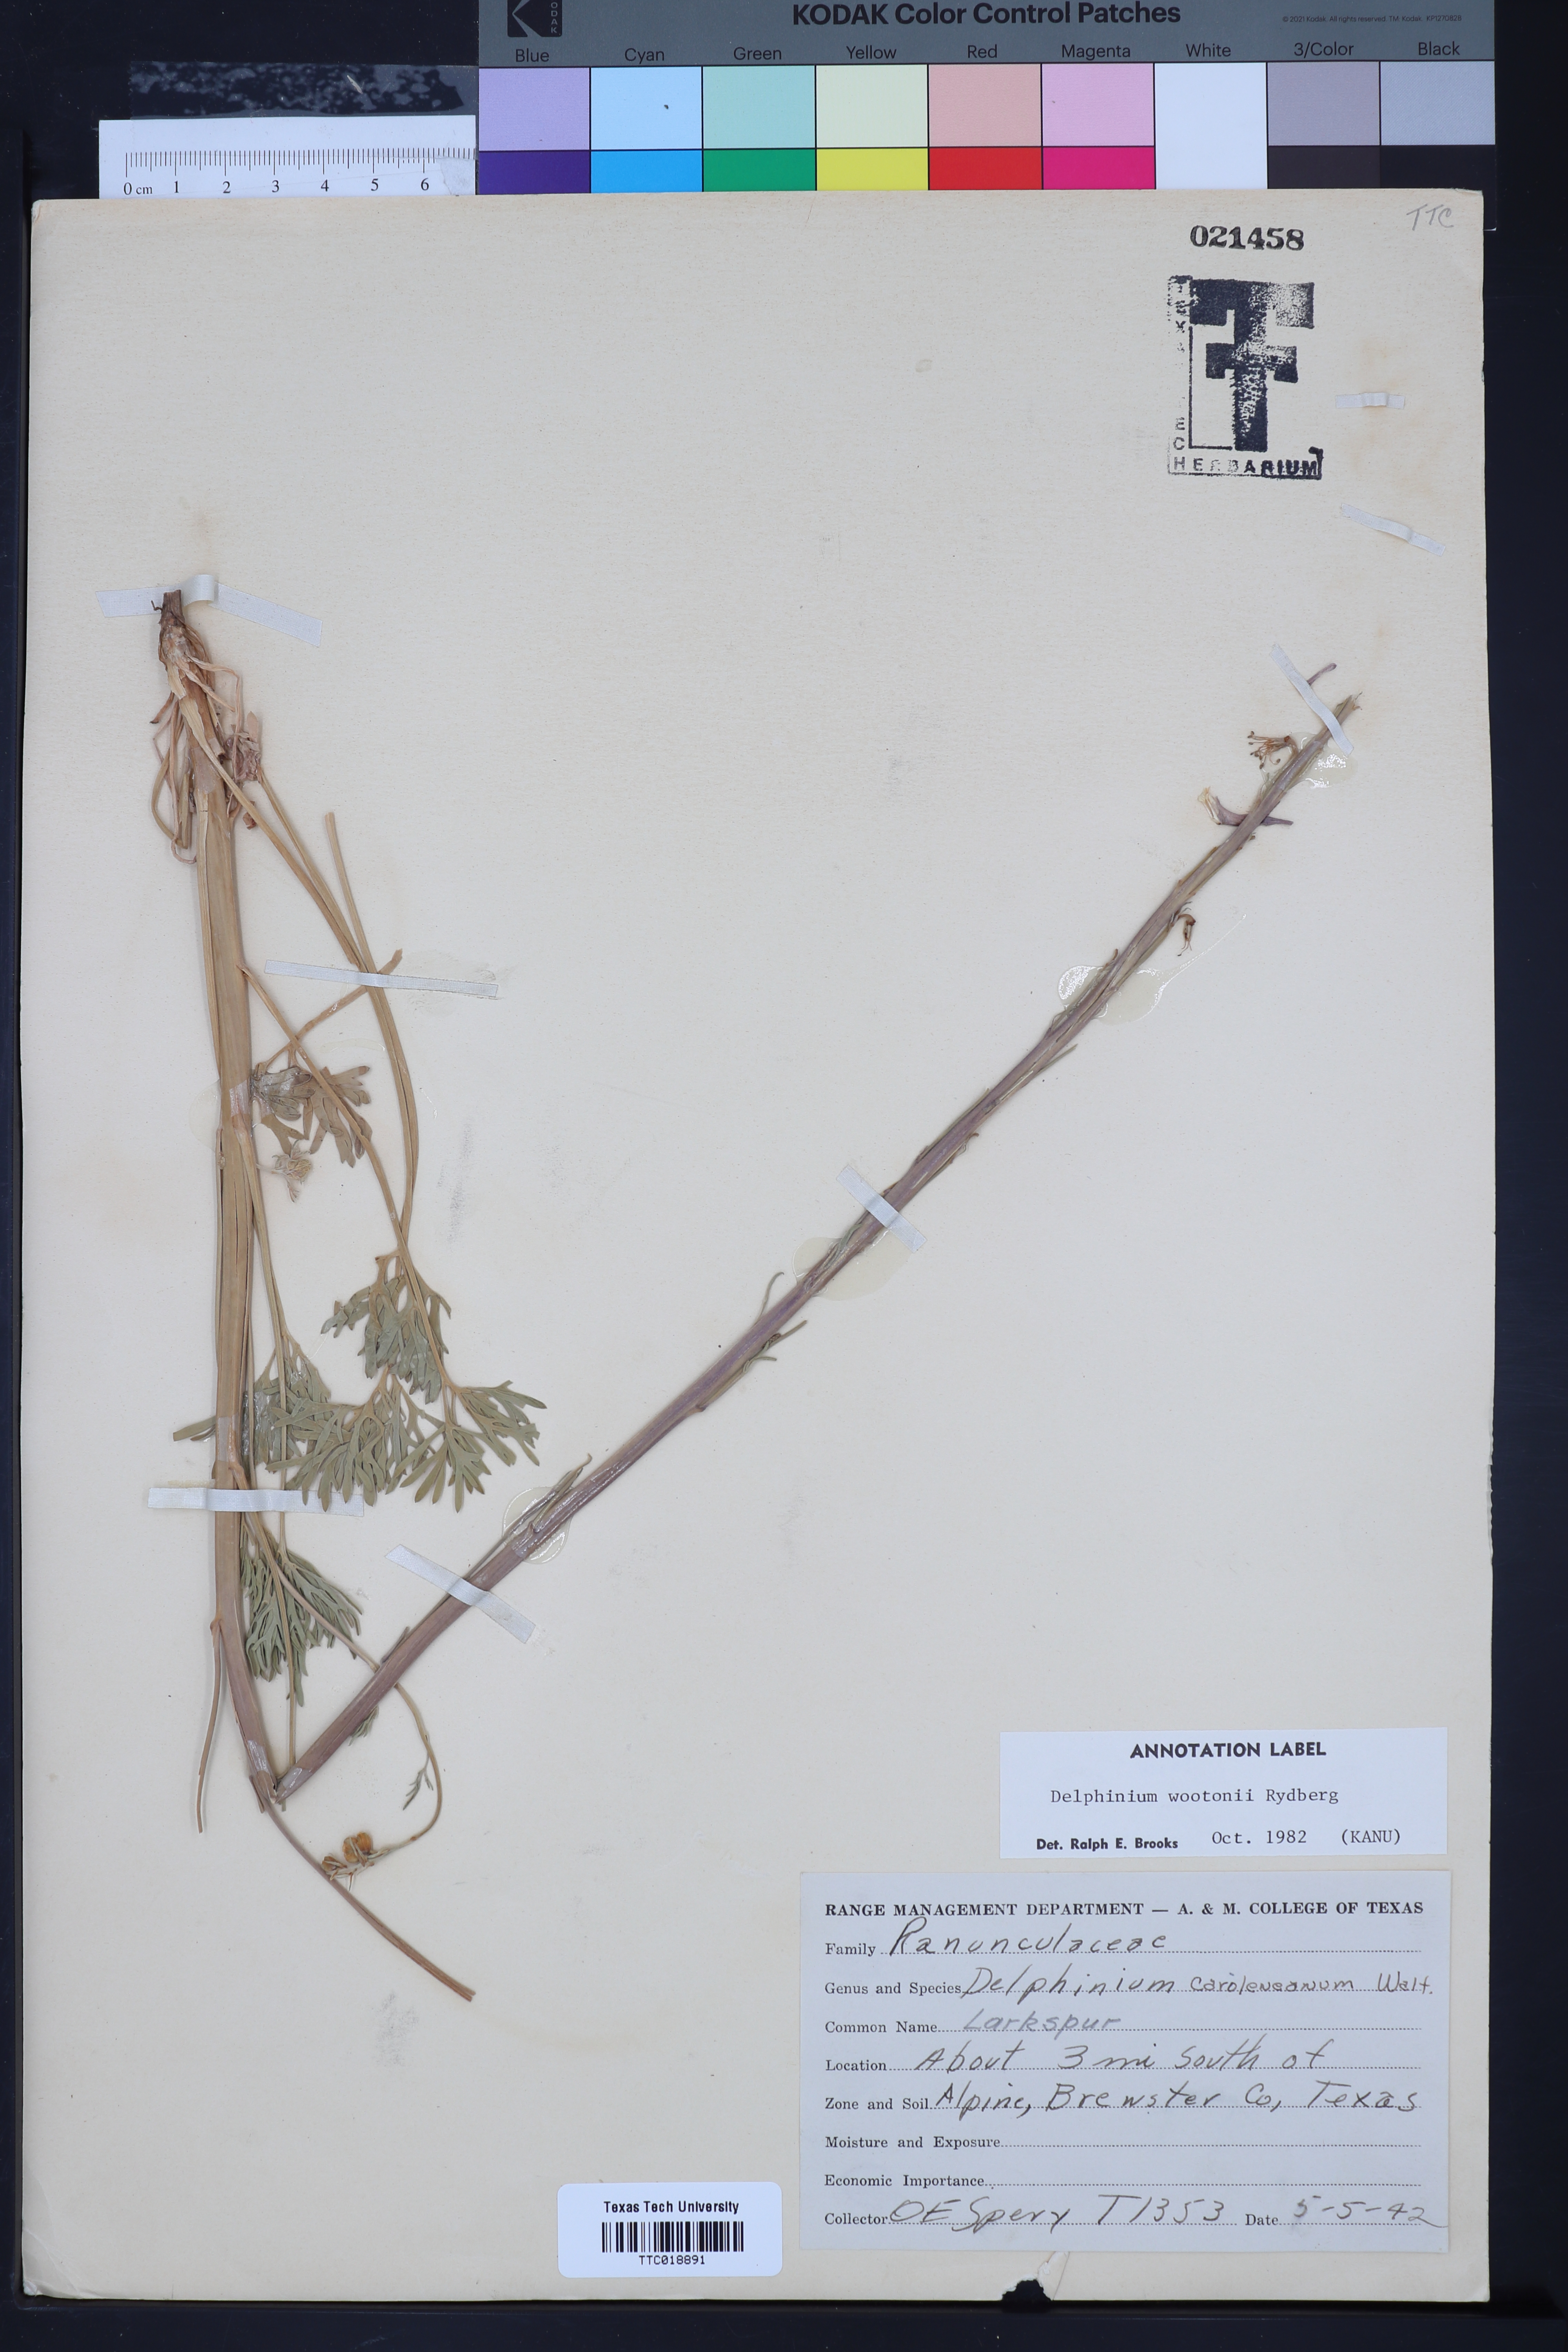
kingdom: Plantae
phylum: Tracheophyta
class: Magnoliopsida
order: Ranunculales
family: Ranunculaceae
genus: Delphinium
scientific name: Delphinium wootonii
